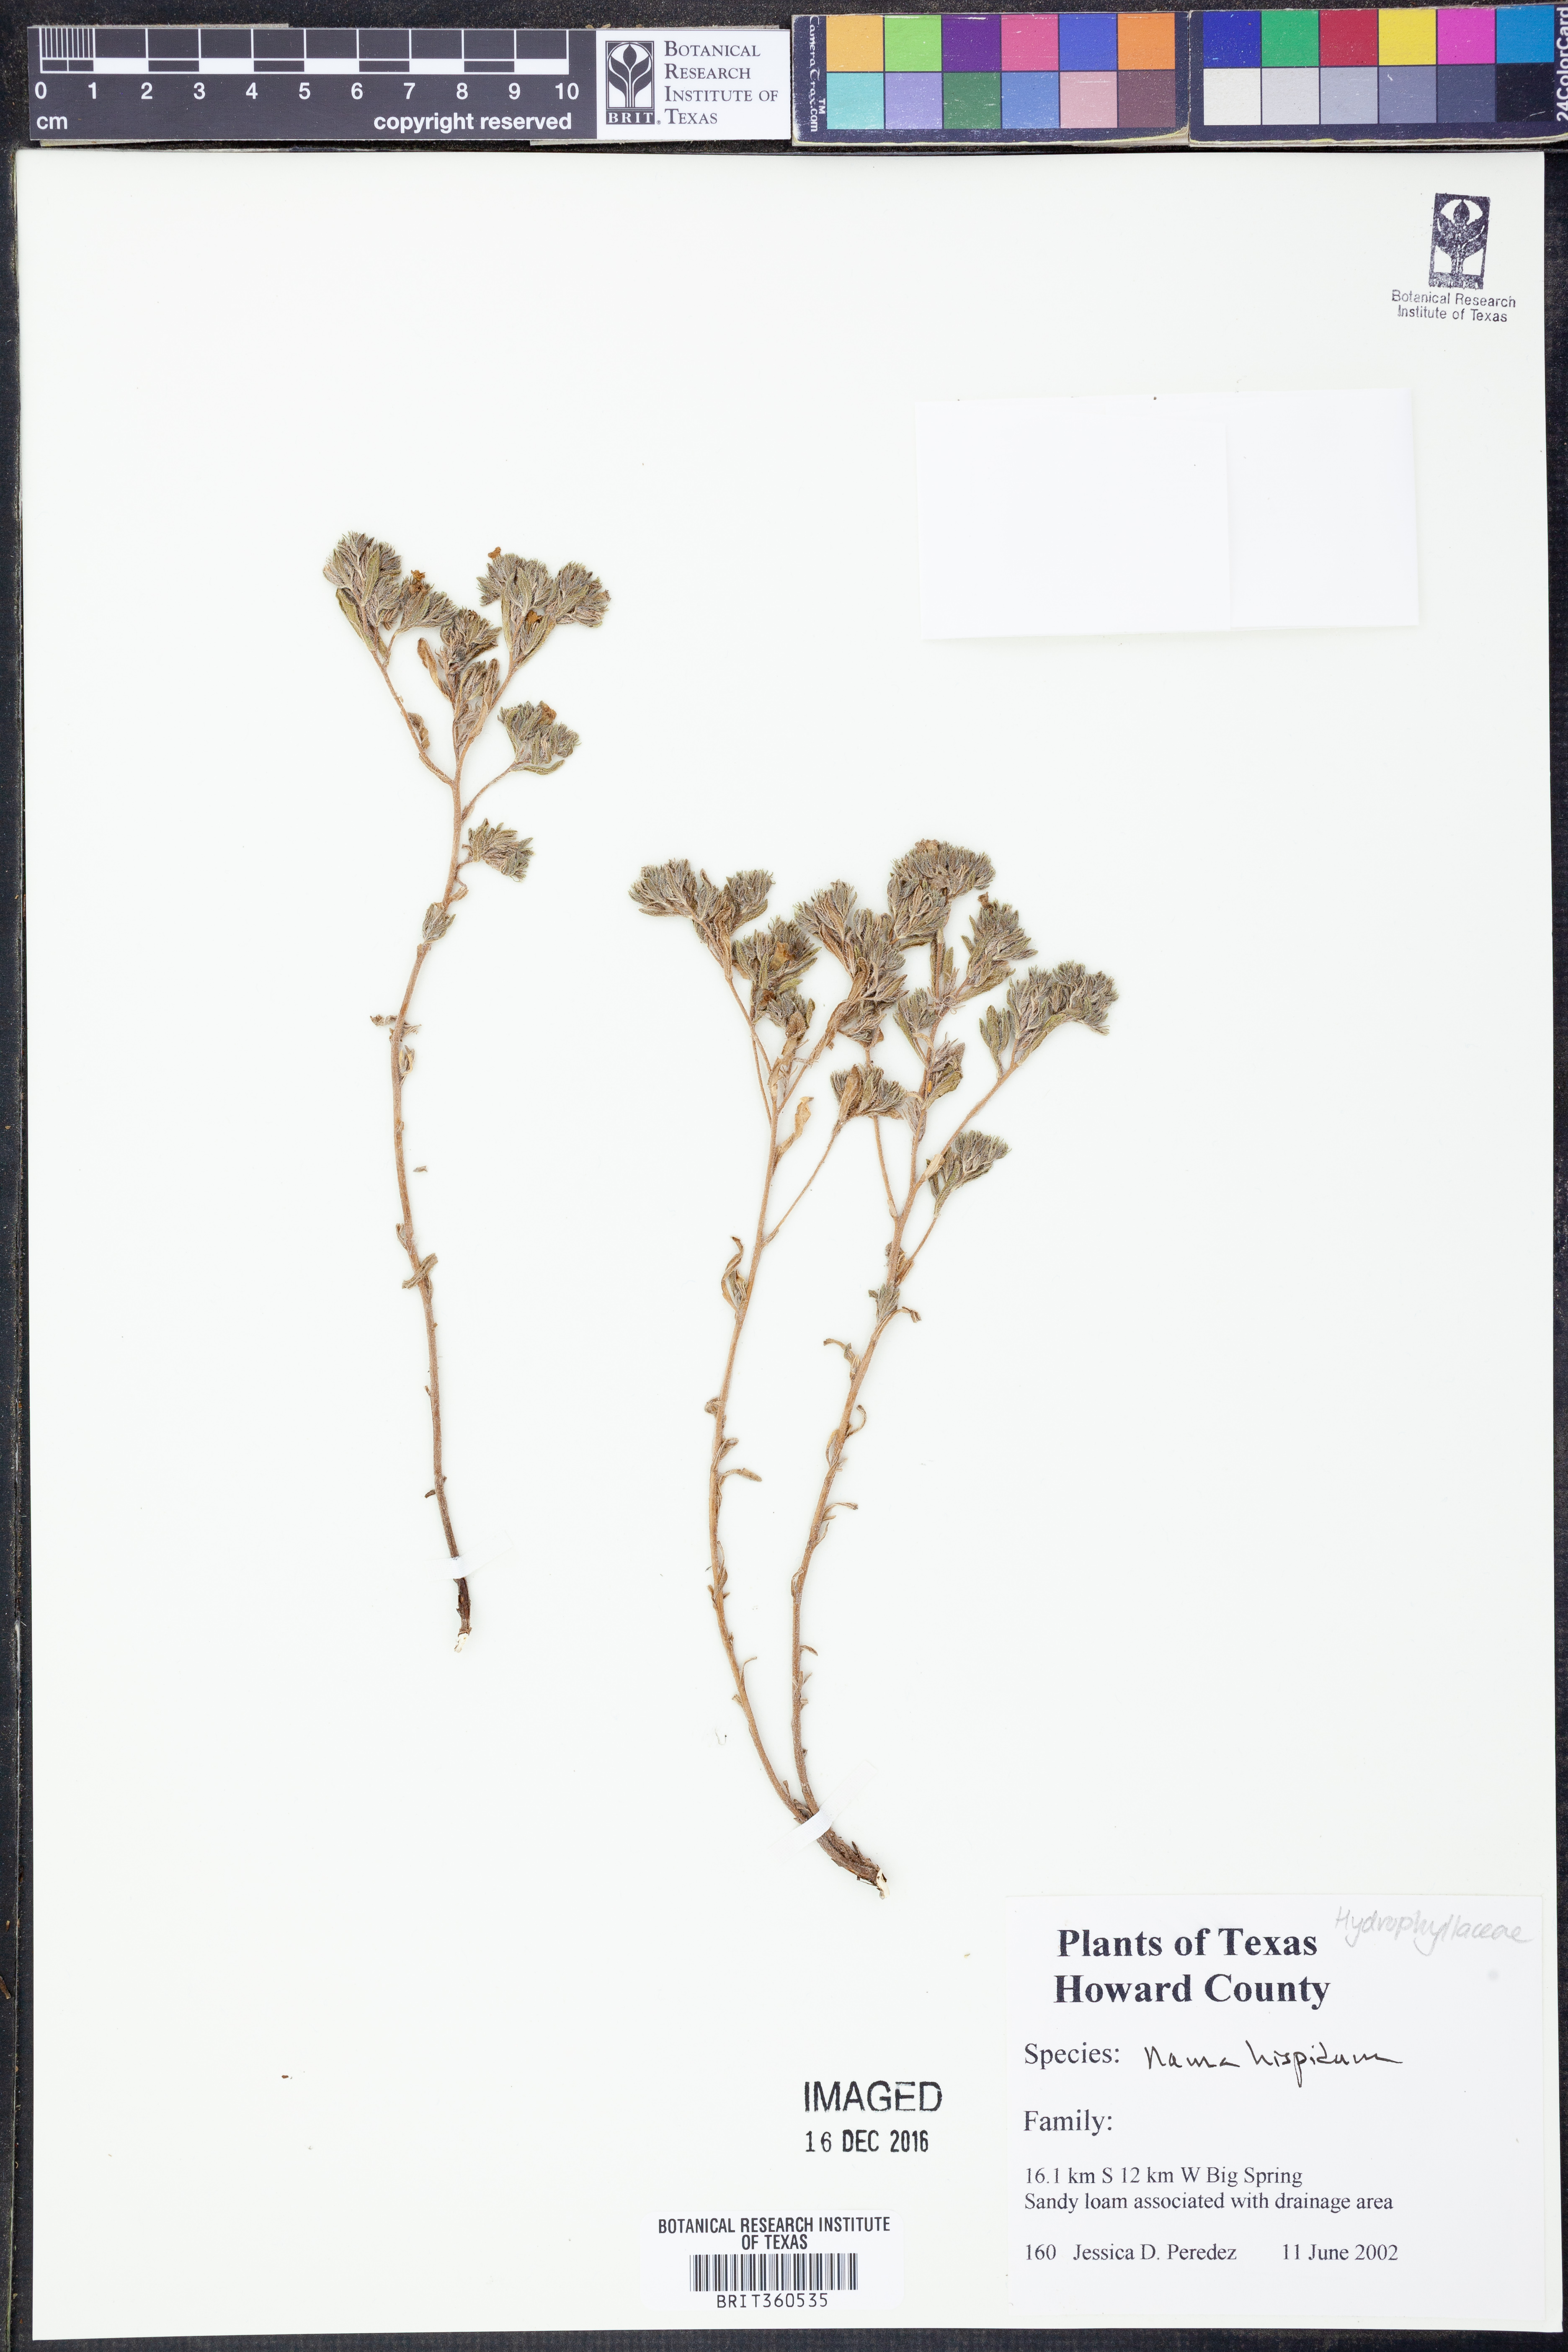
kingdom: Plantae
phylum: Tracheophyta
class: Magnoliopsida
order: Boraginales
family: Namaceae
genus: Nama
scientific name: Nama hispida
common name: Bristly nama
